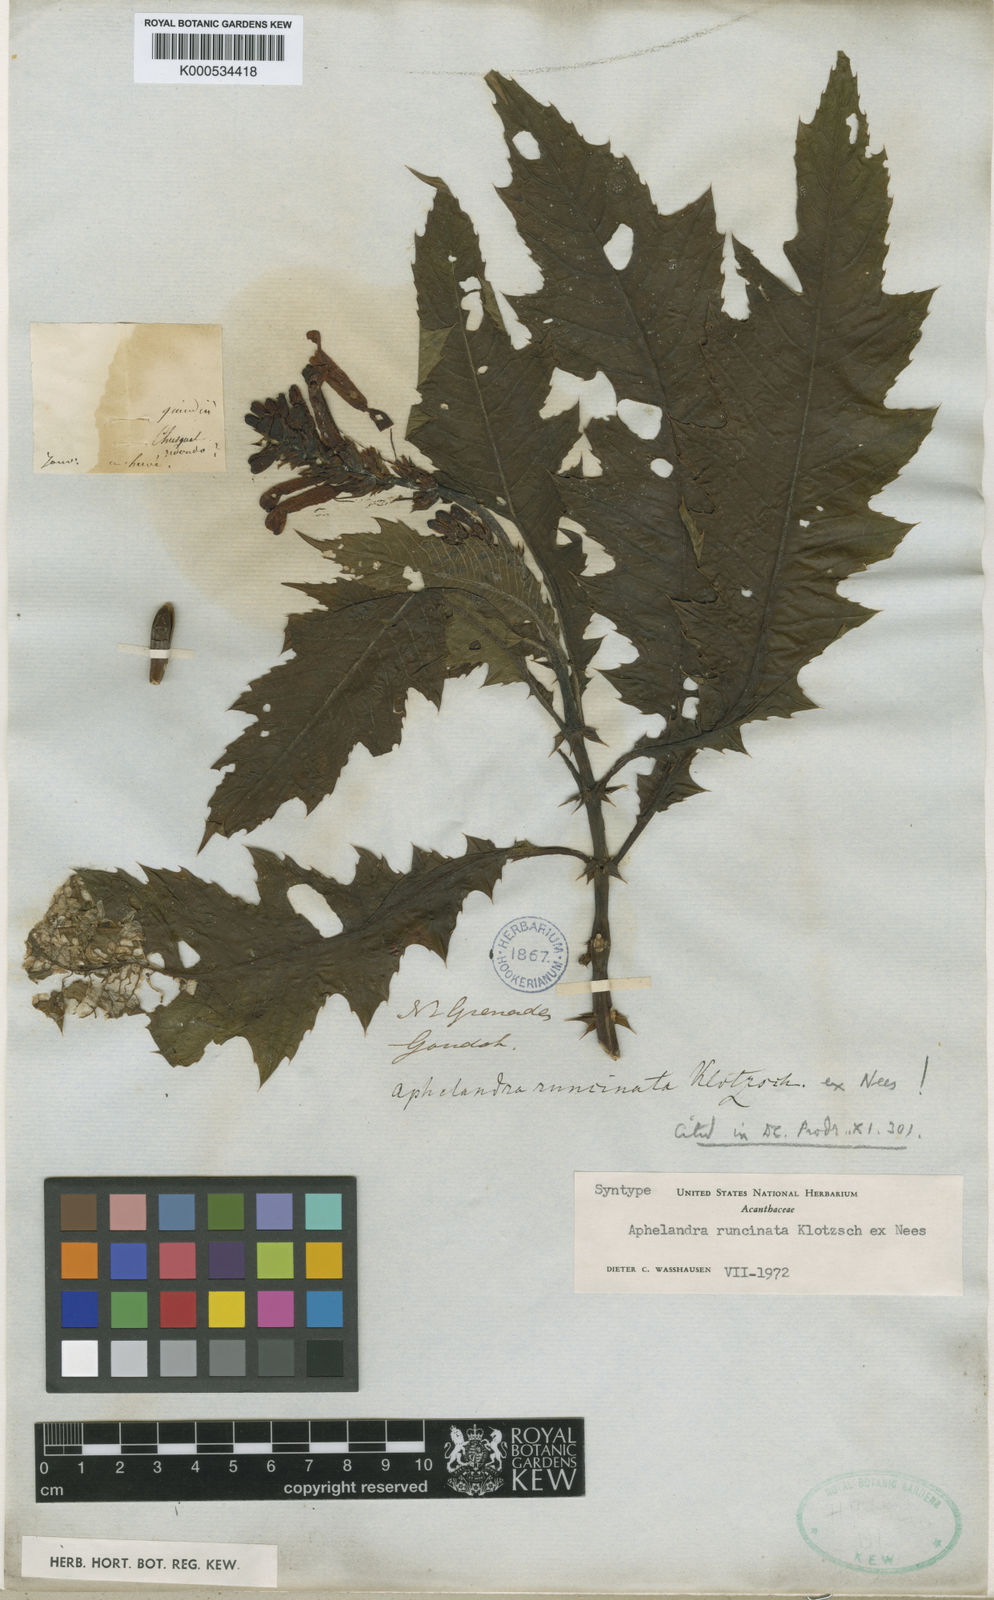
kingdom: Plantae
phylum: Tracheophyta
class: Magnoliopsida
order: Lamiales
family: Acanthaceae
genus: Aphelandra
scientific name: Aphelandra runcinata
